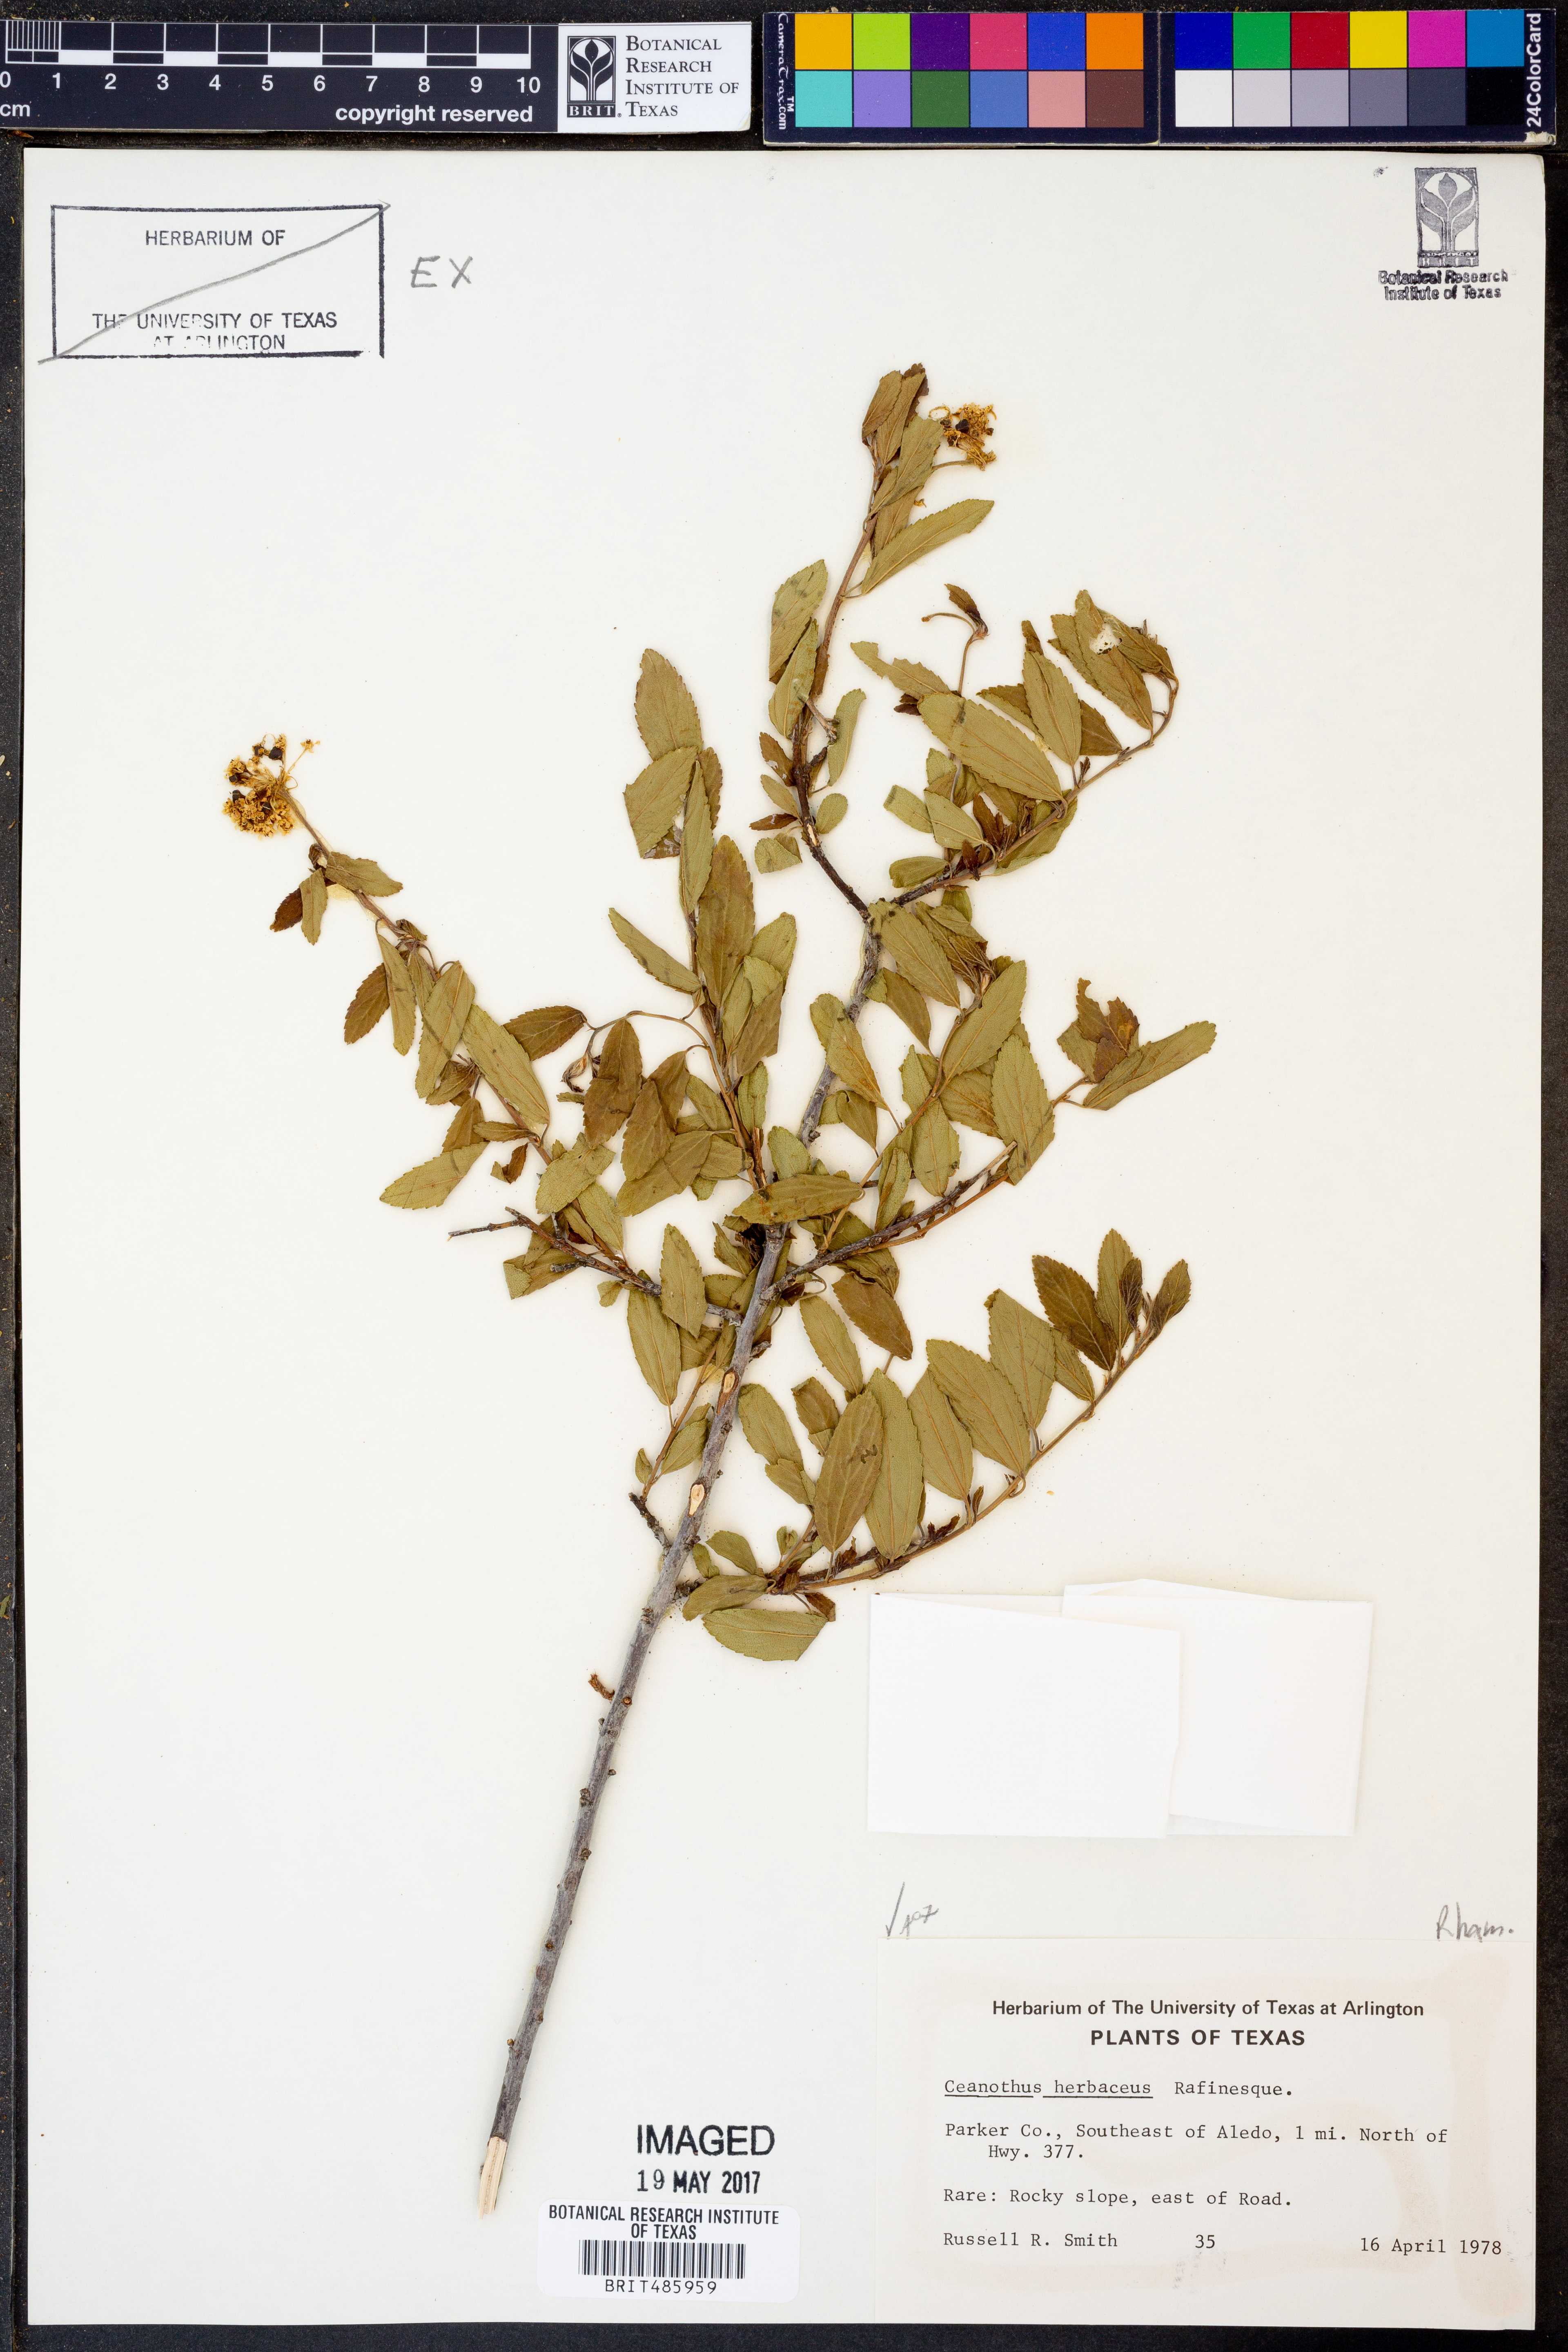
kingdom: Plantae
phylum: Tracheophyta
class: Magnoliopsida
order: Rosales
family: Rhamnaceae
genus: Ceanothus
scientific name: Ceanothus herbaceus
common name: Inland ceanothus
